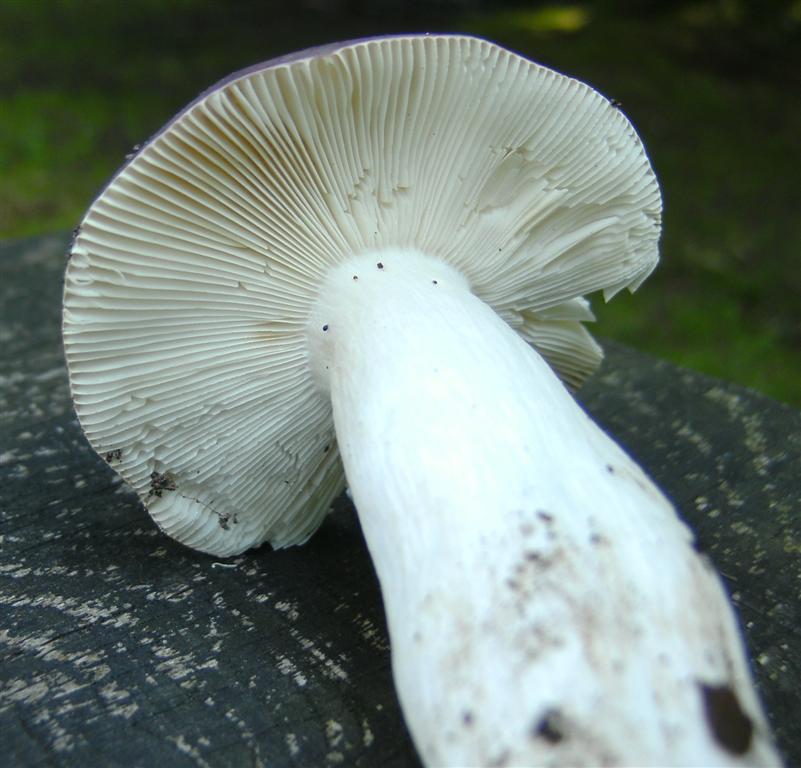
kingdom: Fungi
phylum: Basidiomycota
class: Agaricomycetes
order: Russulales
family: Russulaceae
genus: Russula
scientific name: Russula
